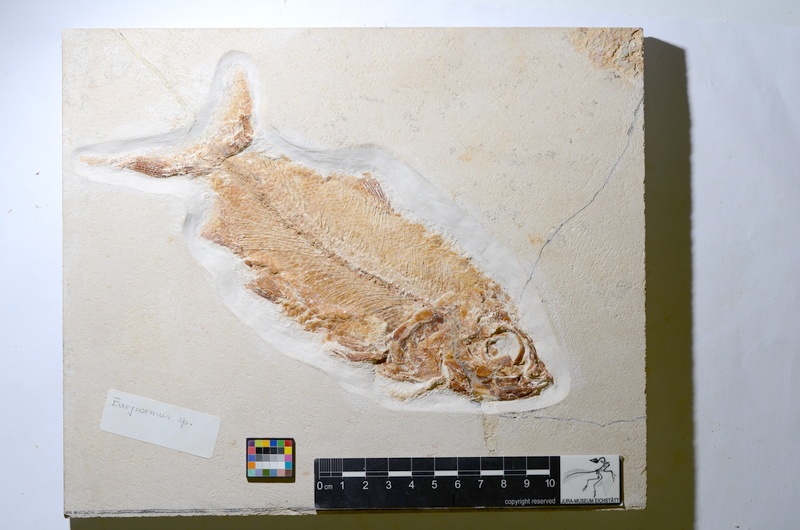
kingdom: Animalia
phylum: Chordata
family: Eurycormidae
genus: Eurycormus
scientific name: Eurycormus
